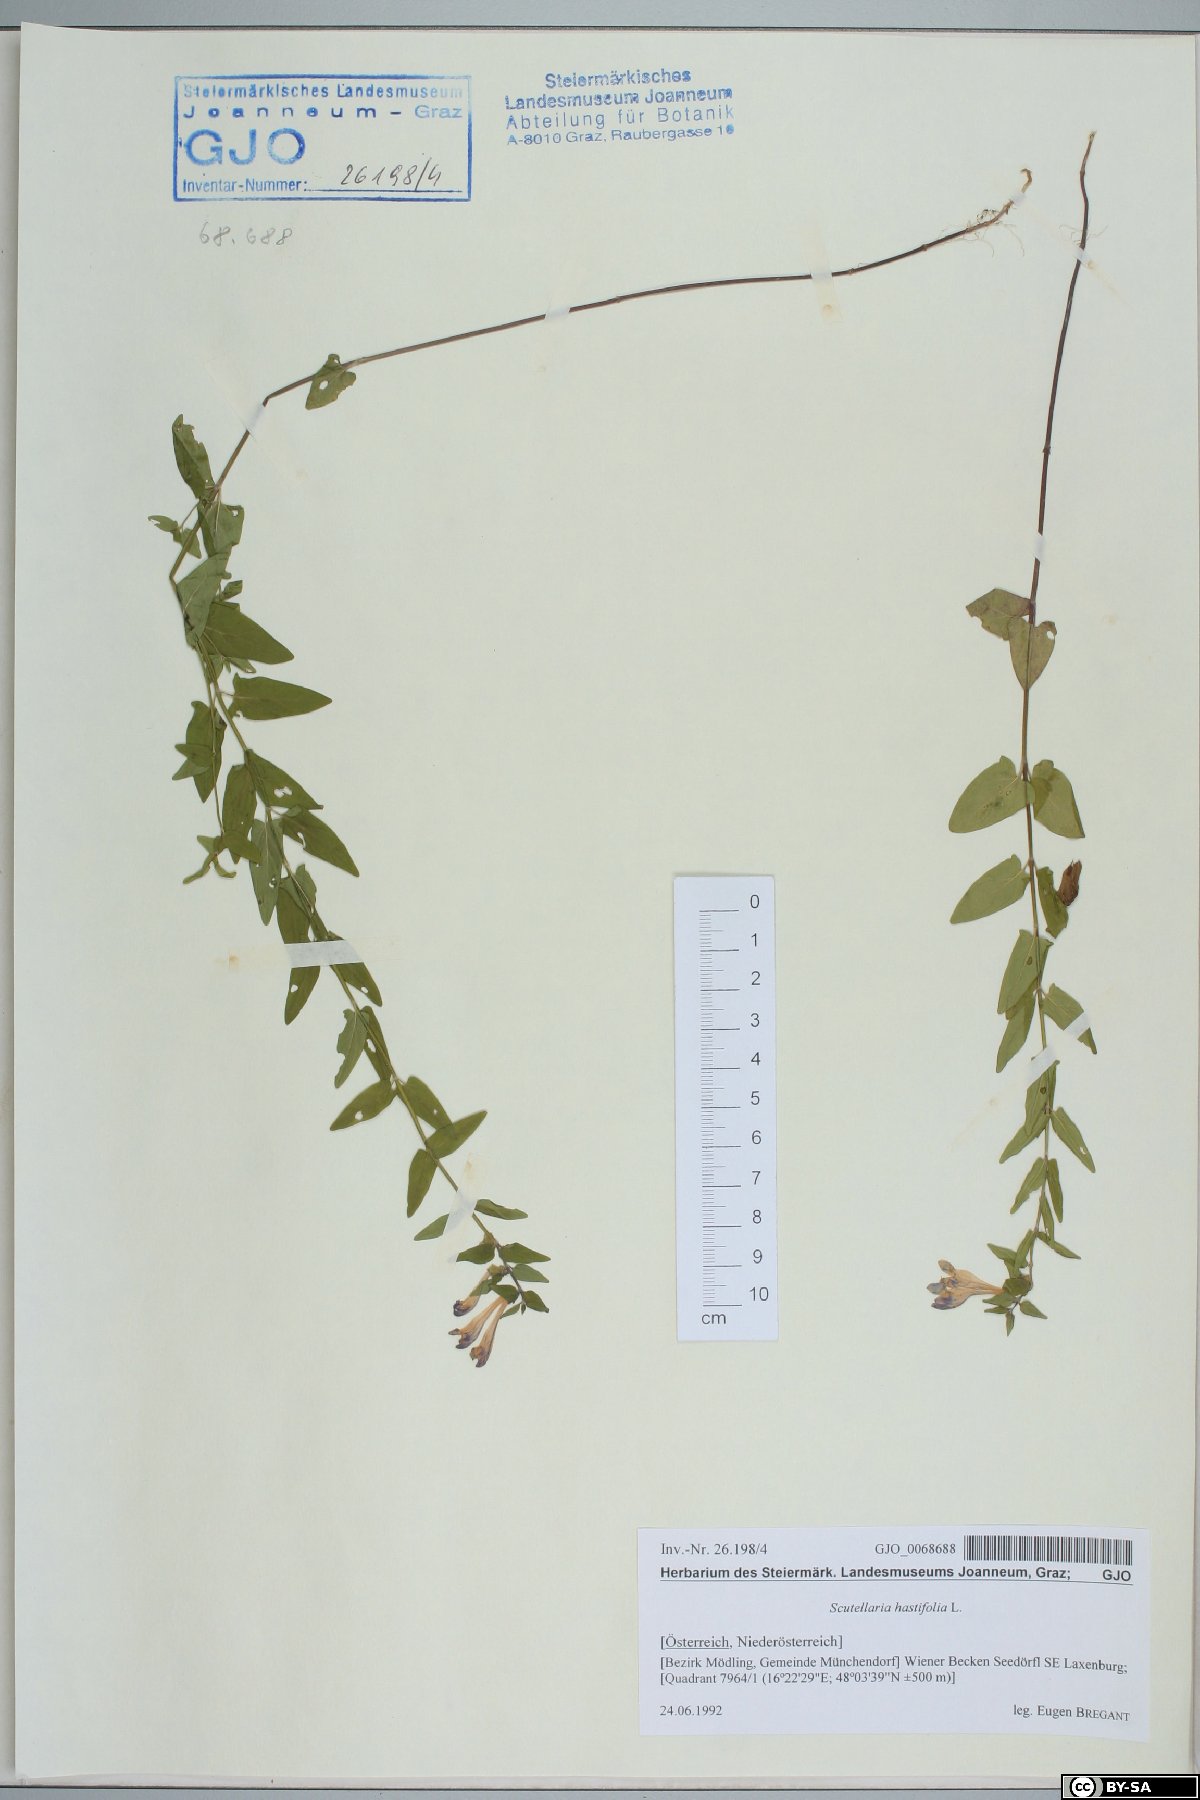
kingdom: Plantae
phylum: Tracheophyta
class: Magnoliopsida
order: Lamiales
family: Lamiaceae
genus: Scutellaria
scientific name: Scutellaria hastifolia
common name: Norfolk skullcap
